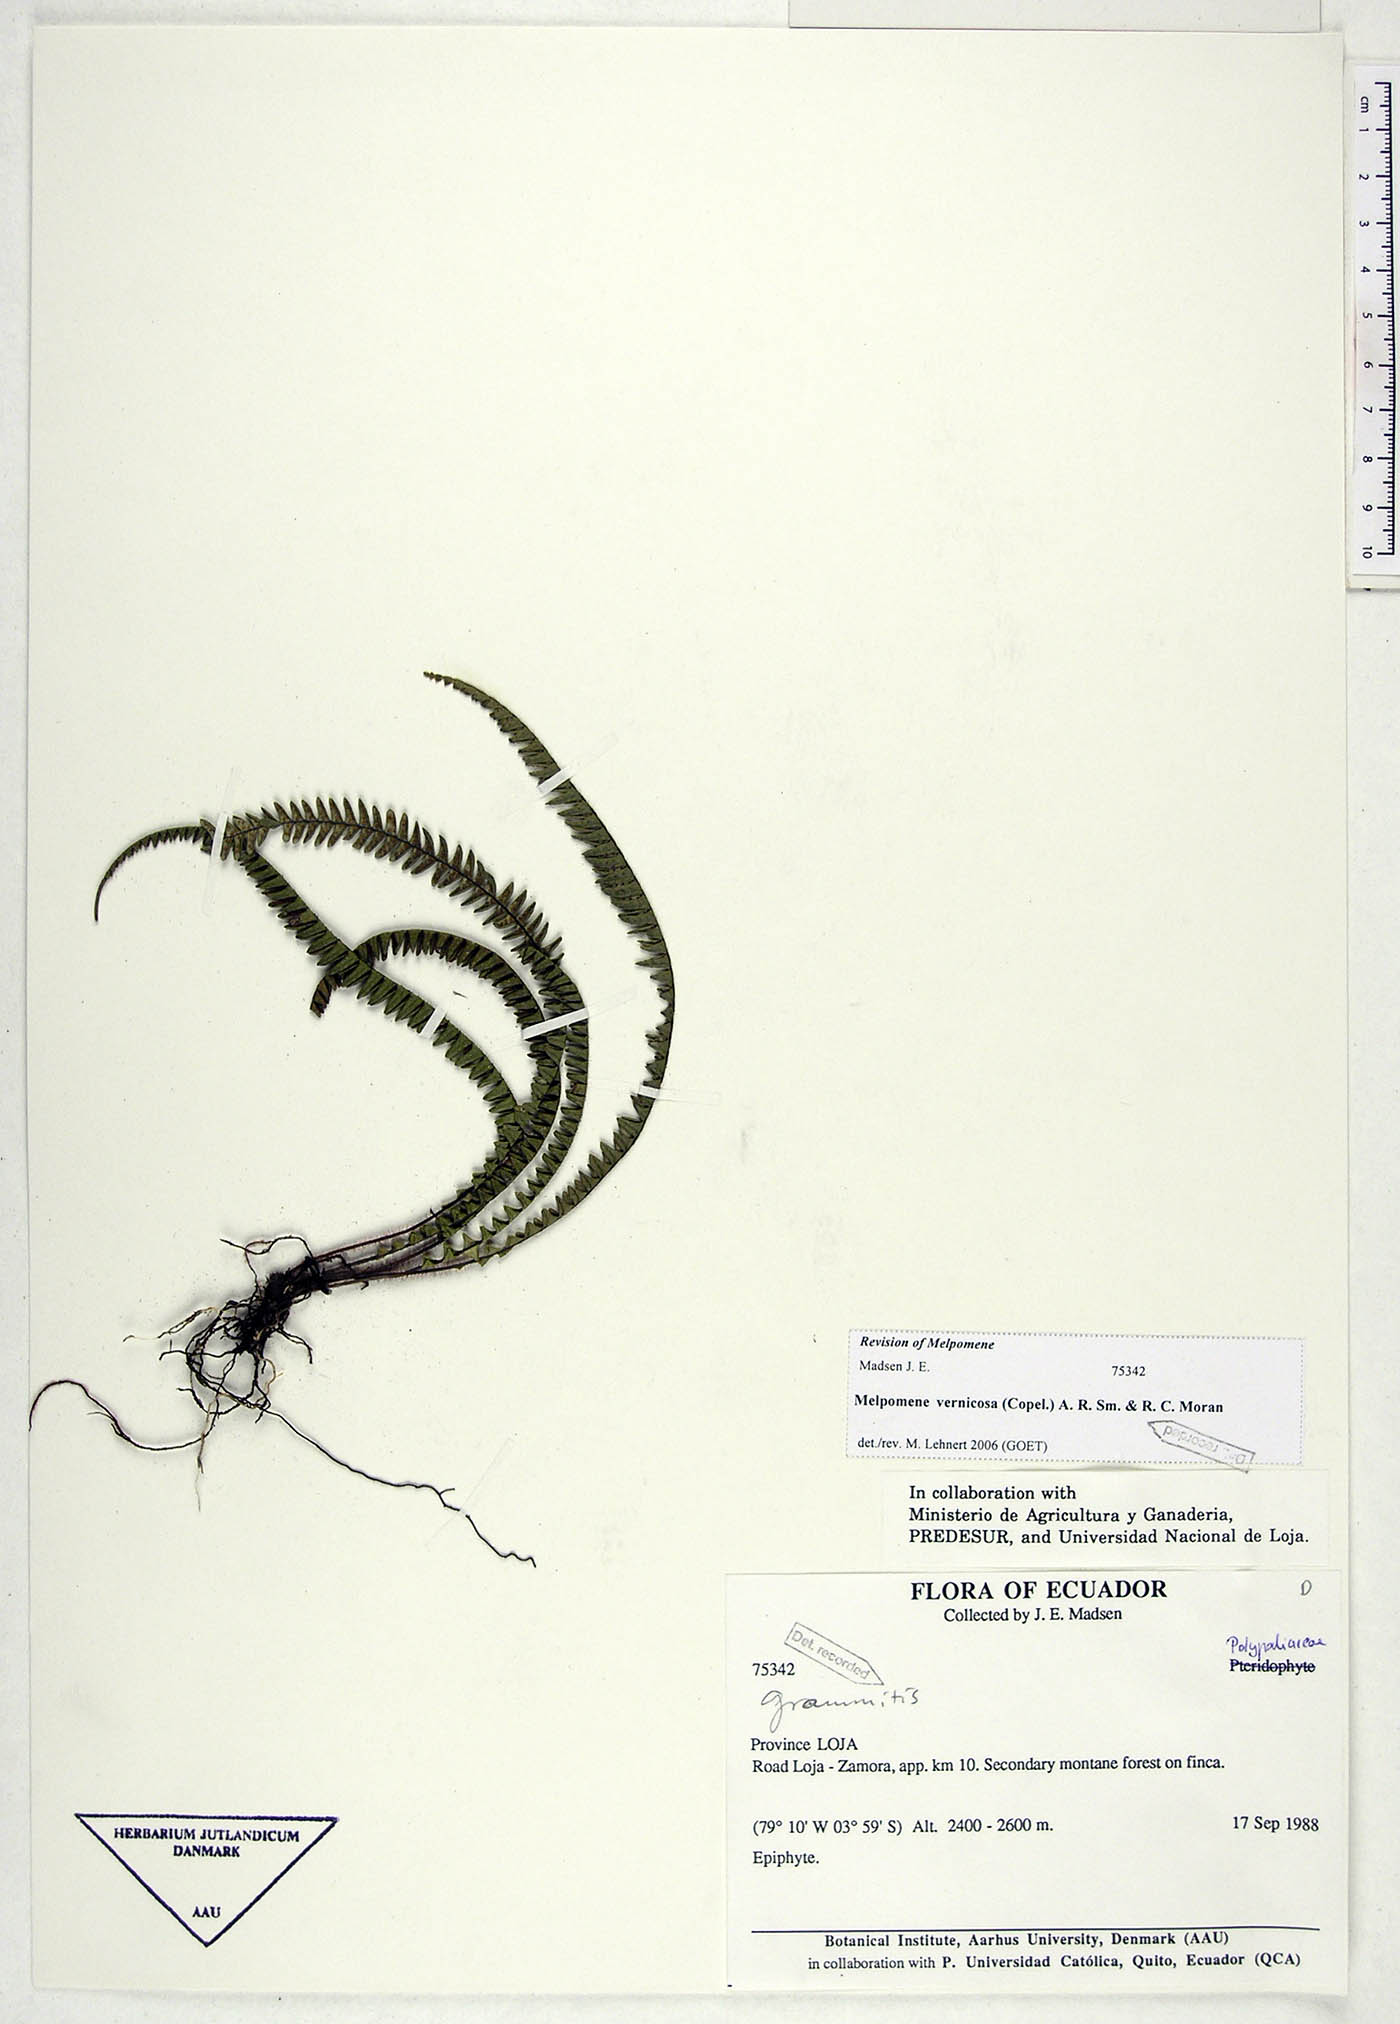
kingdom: Plantae
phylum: Tracheophyta
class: Polypodiopsida
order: Polypodiales
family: Polypodiaceae
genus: Melpomene
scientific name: Melpomene pennellii
